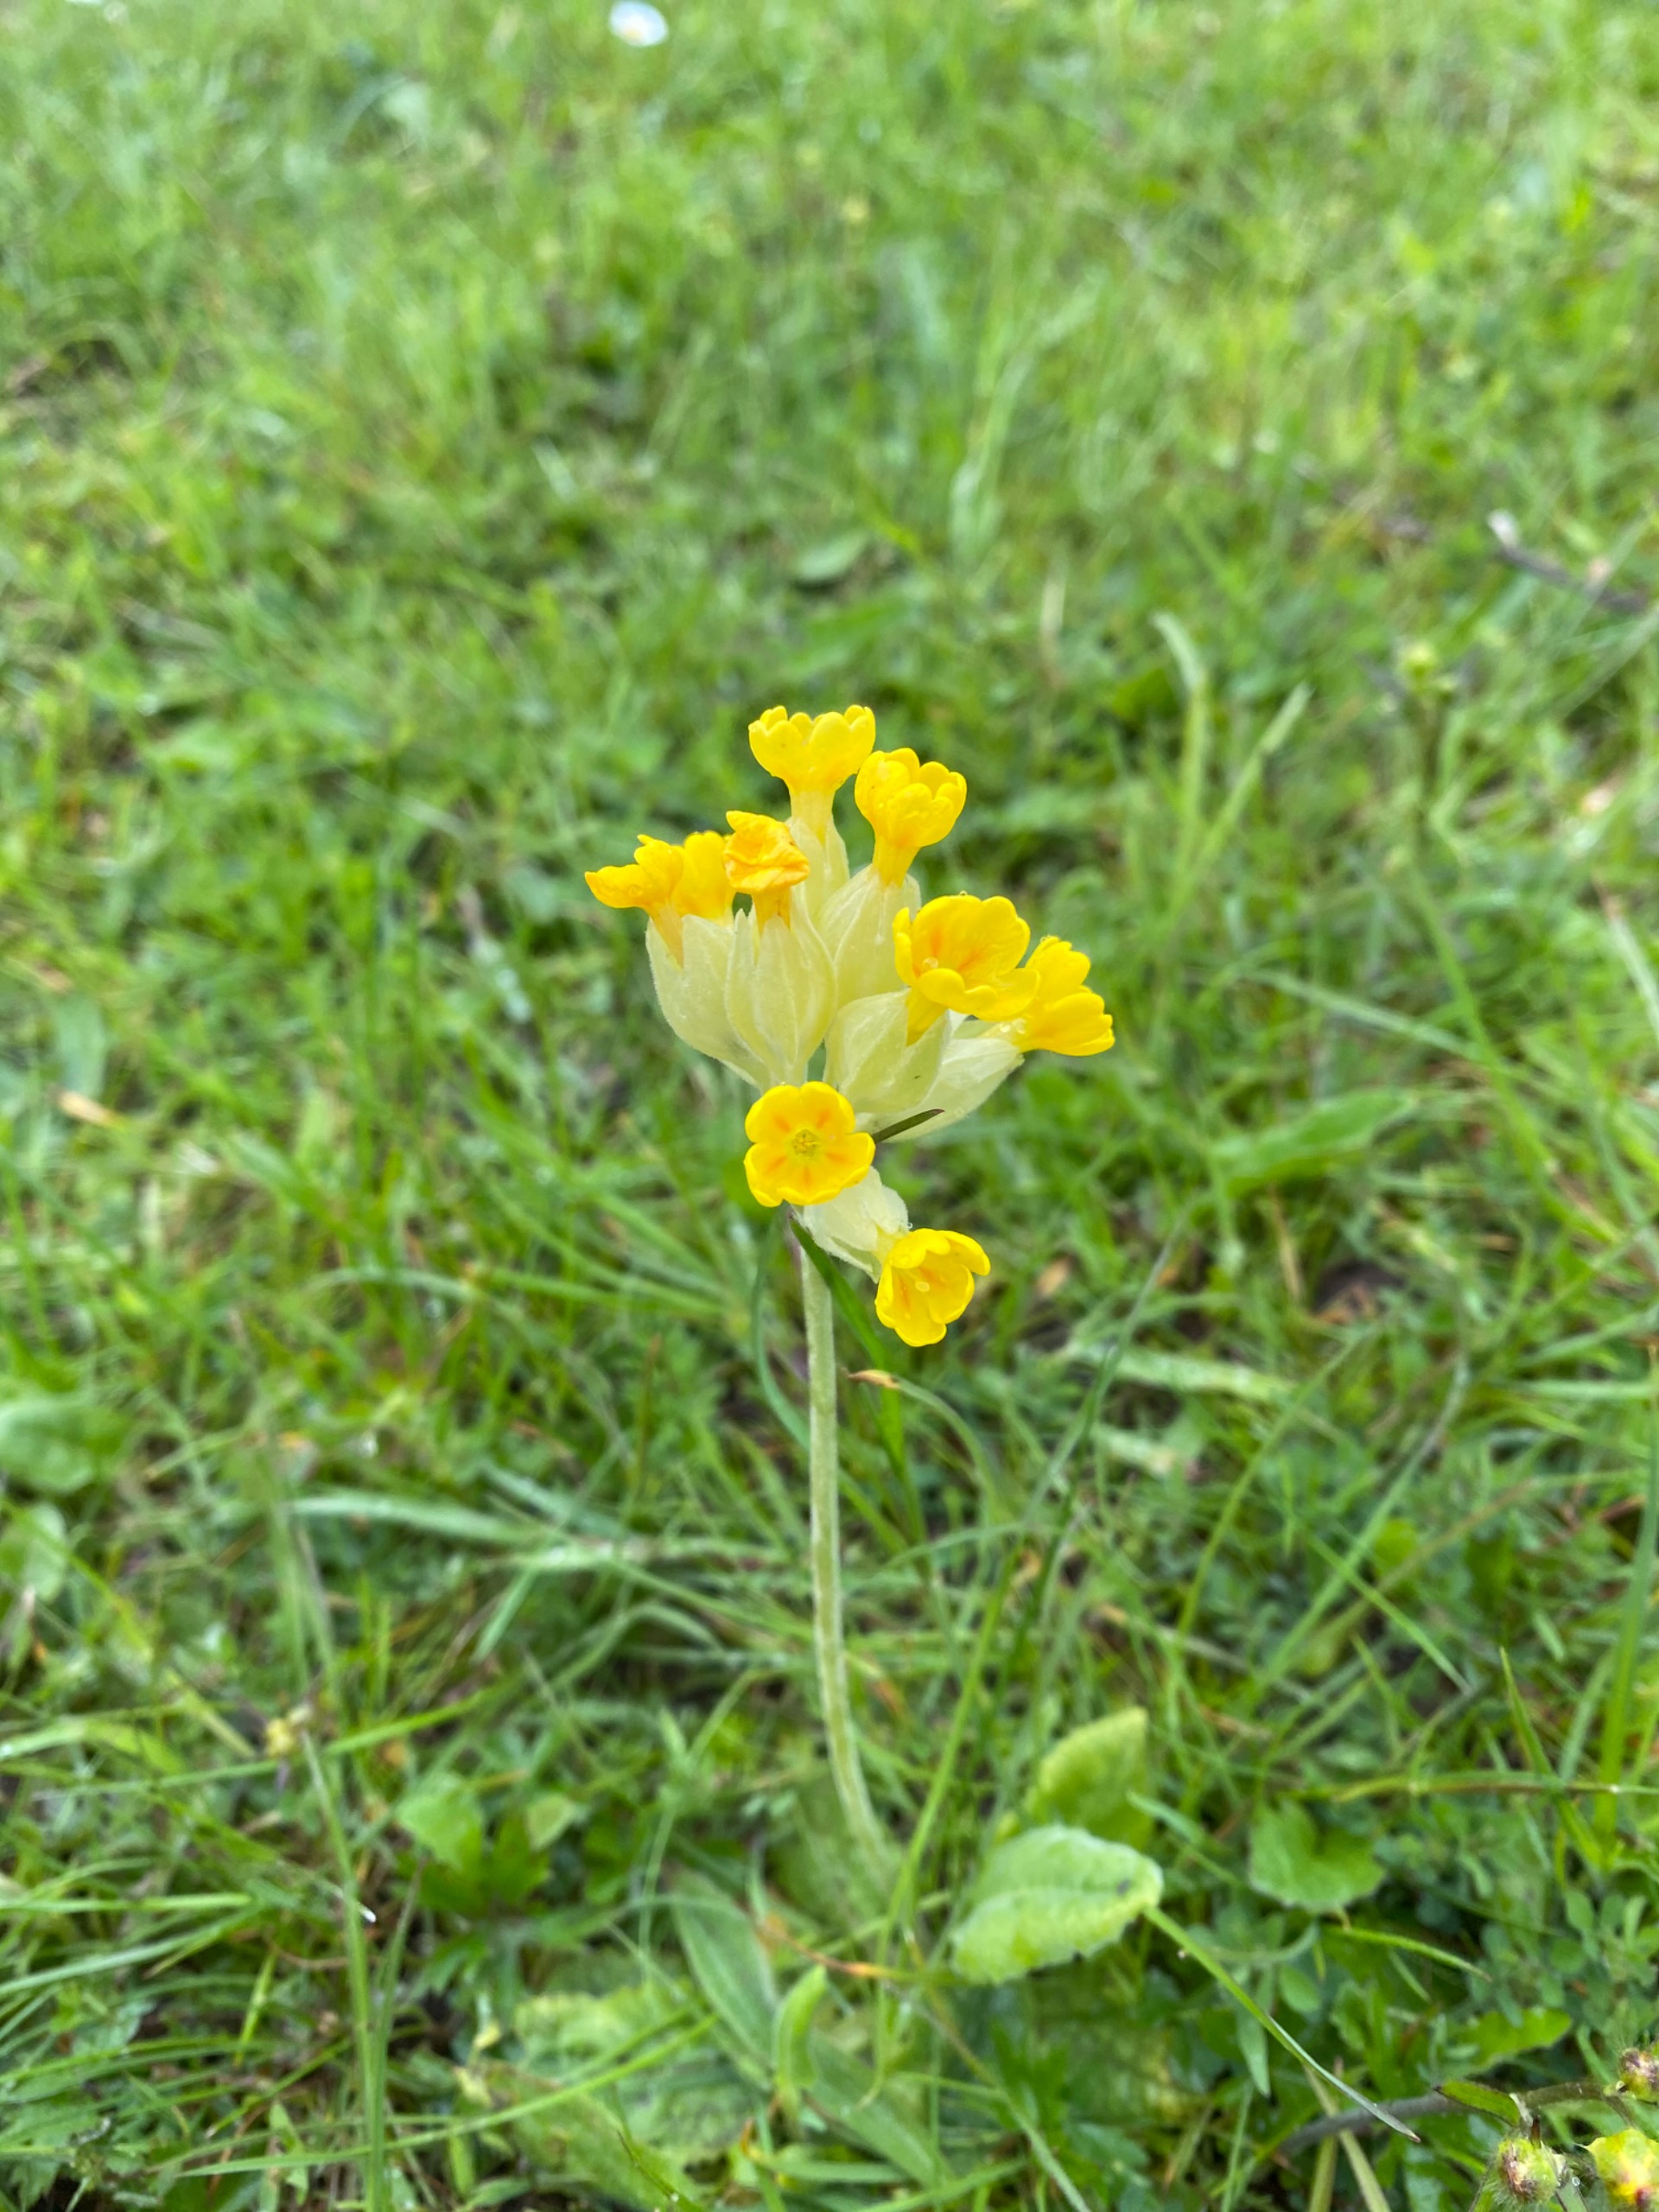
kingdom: Plantae
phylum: Tracheophyta
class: Magnoliopsida
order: Ericales
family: Primulaceae
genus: Primula
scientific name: Primula veris
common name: Hulkravet kodriver
